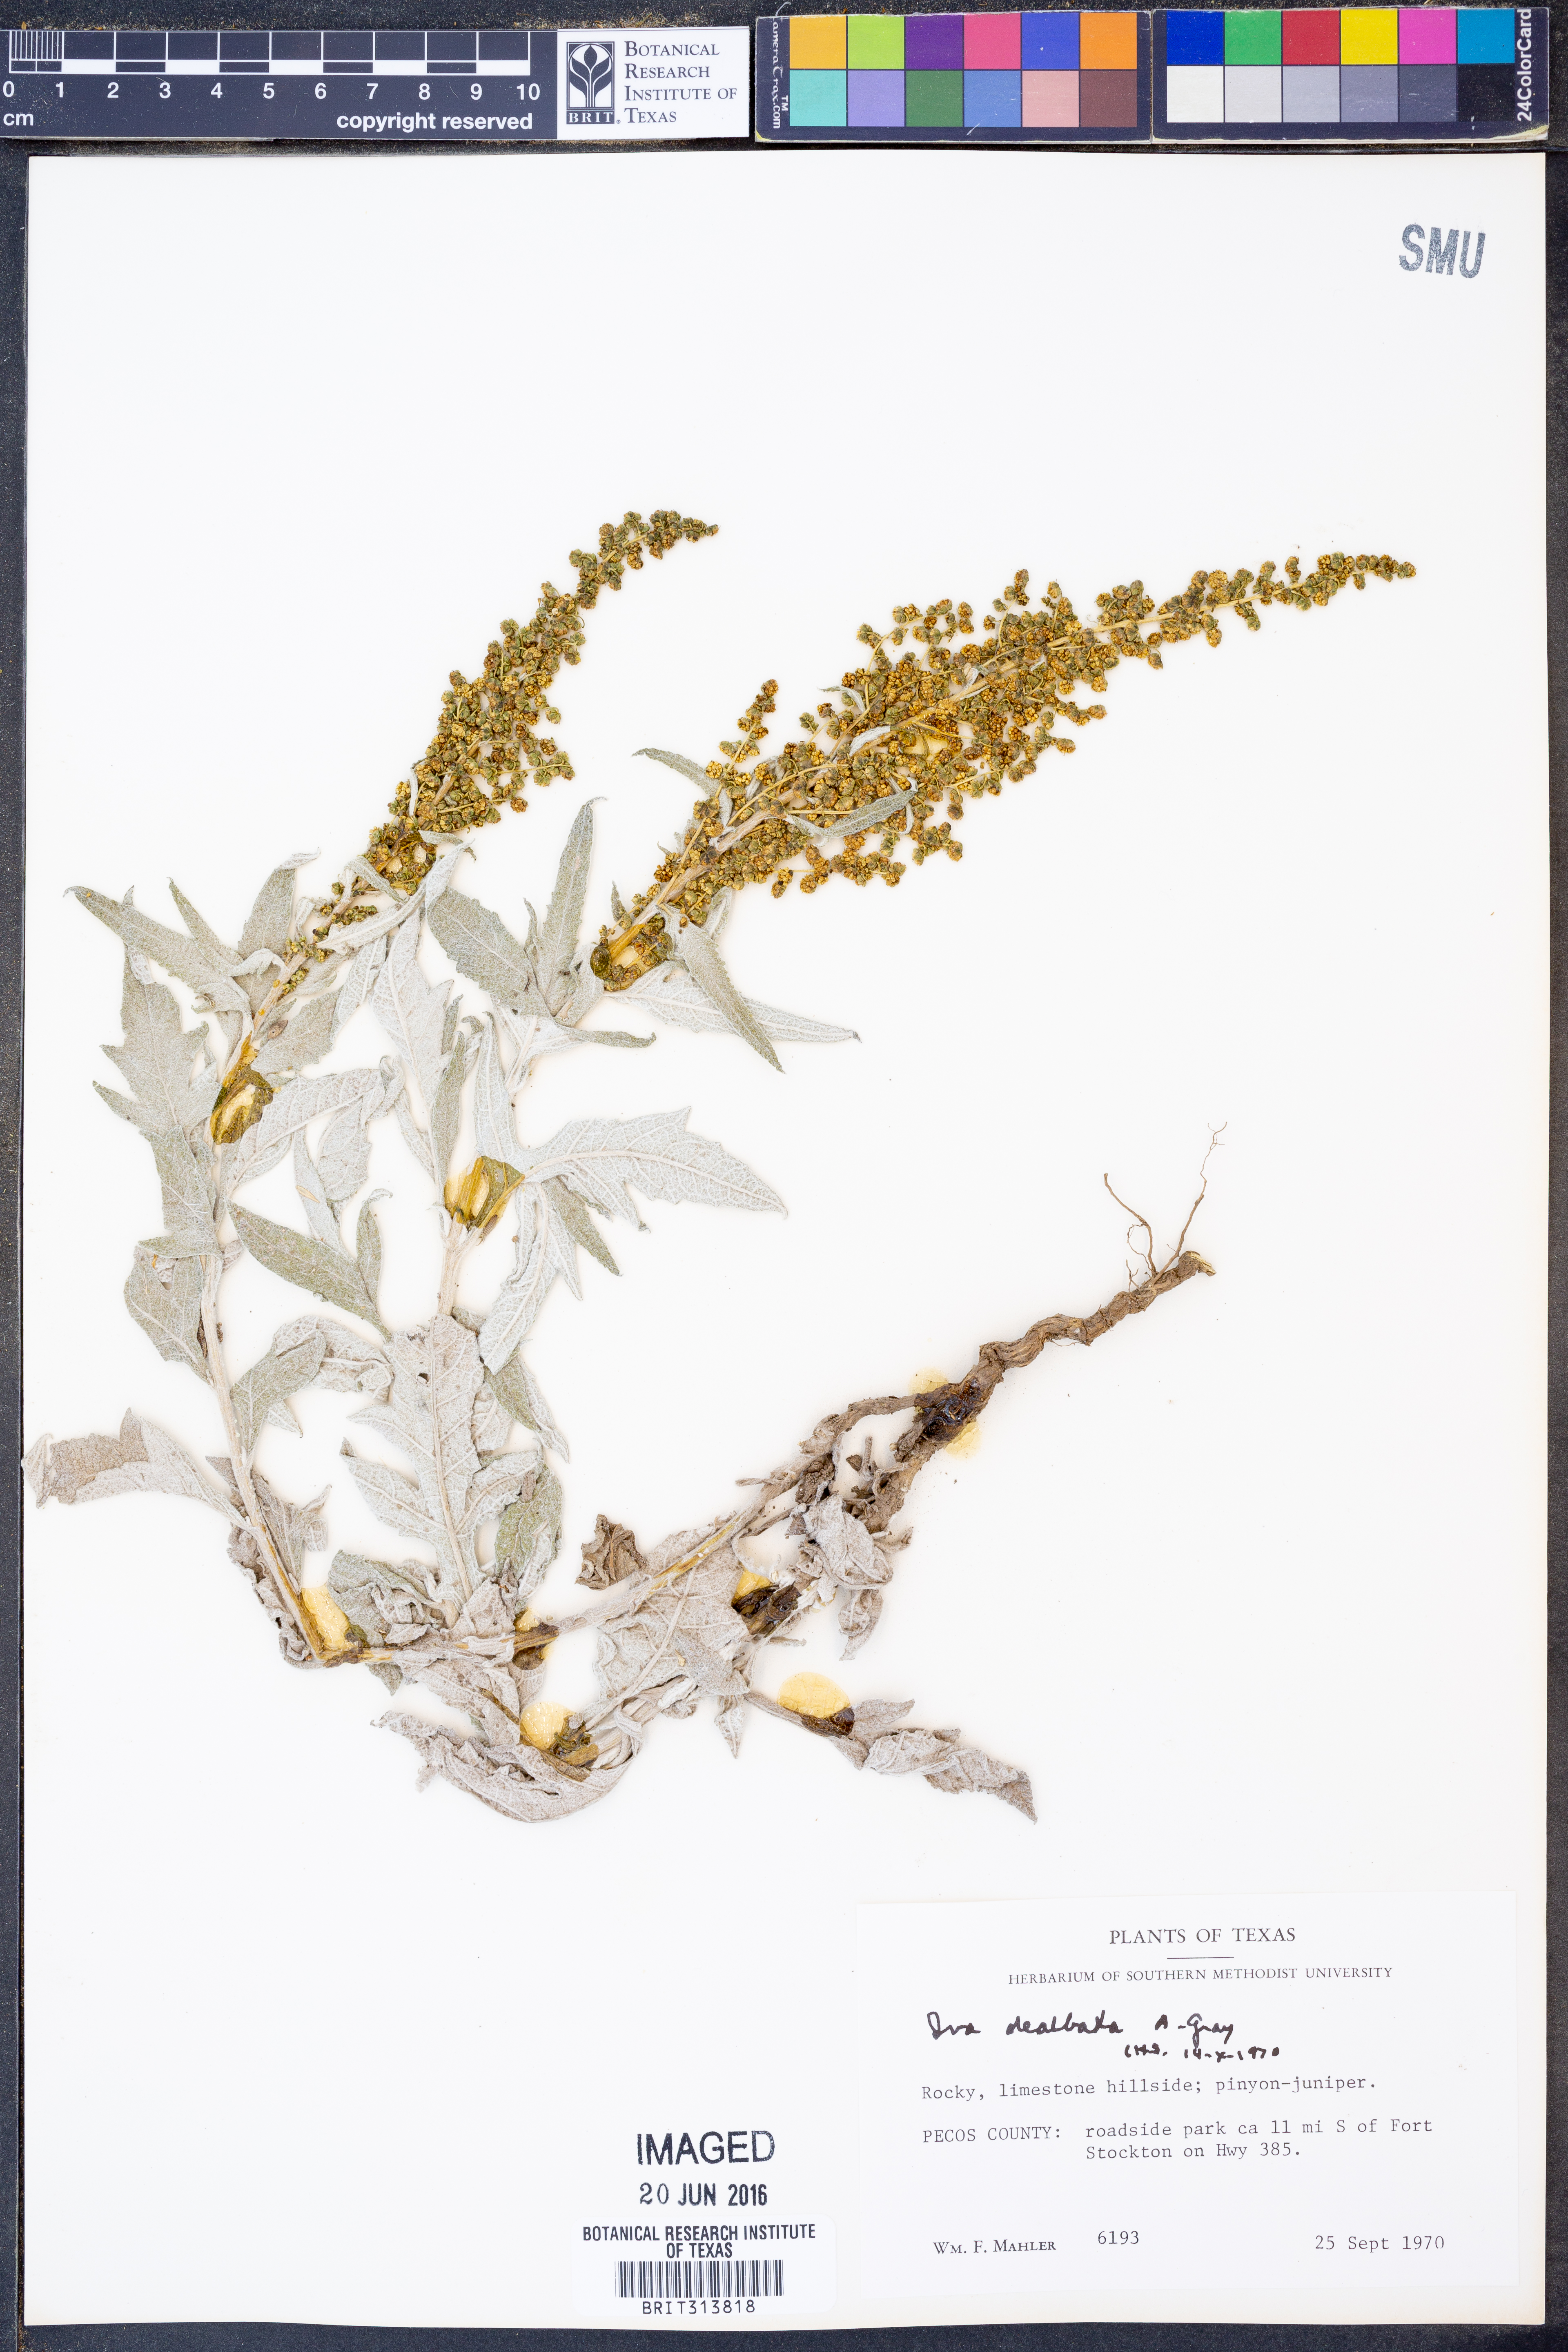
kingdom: Plantae
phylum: Tracheophyta
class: Magnoliopsida
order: Asterales
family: Asteraceae
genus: Euphrosyne
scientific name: Euphrosyne dealbata
